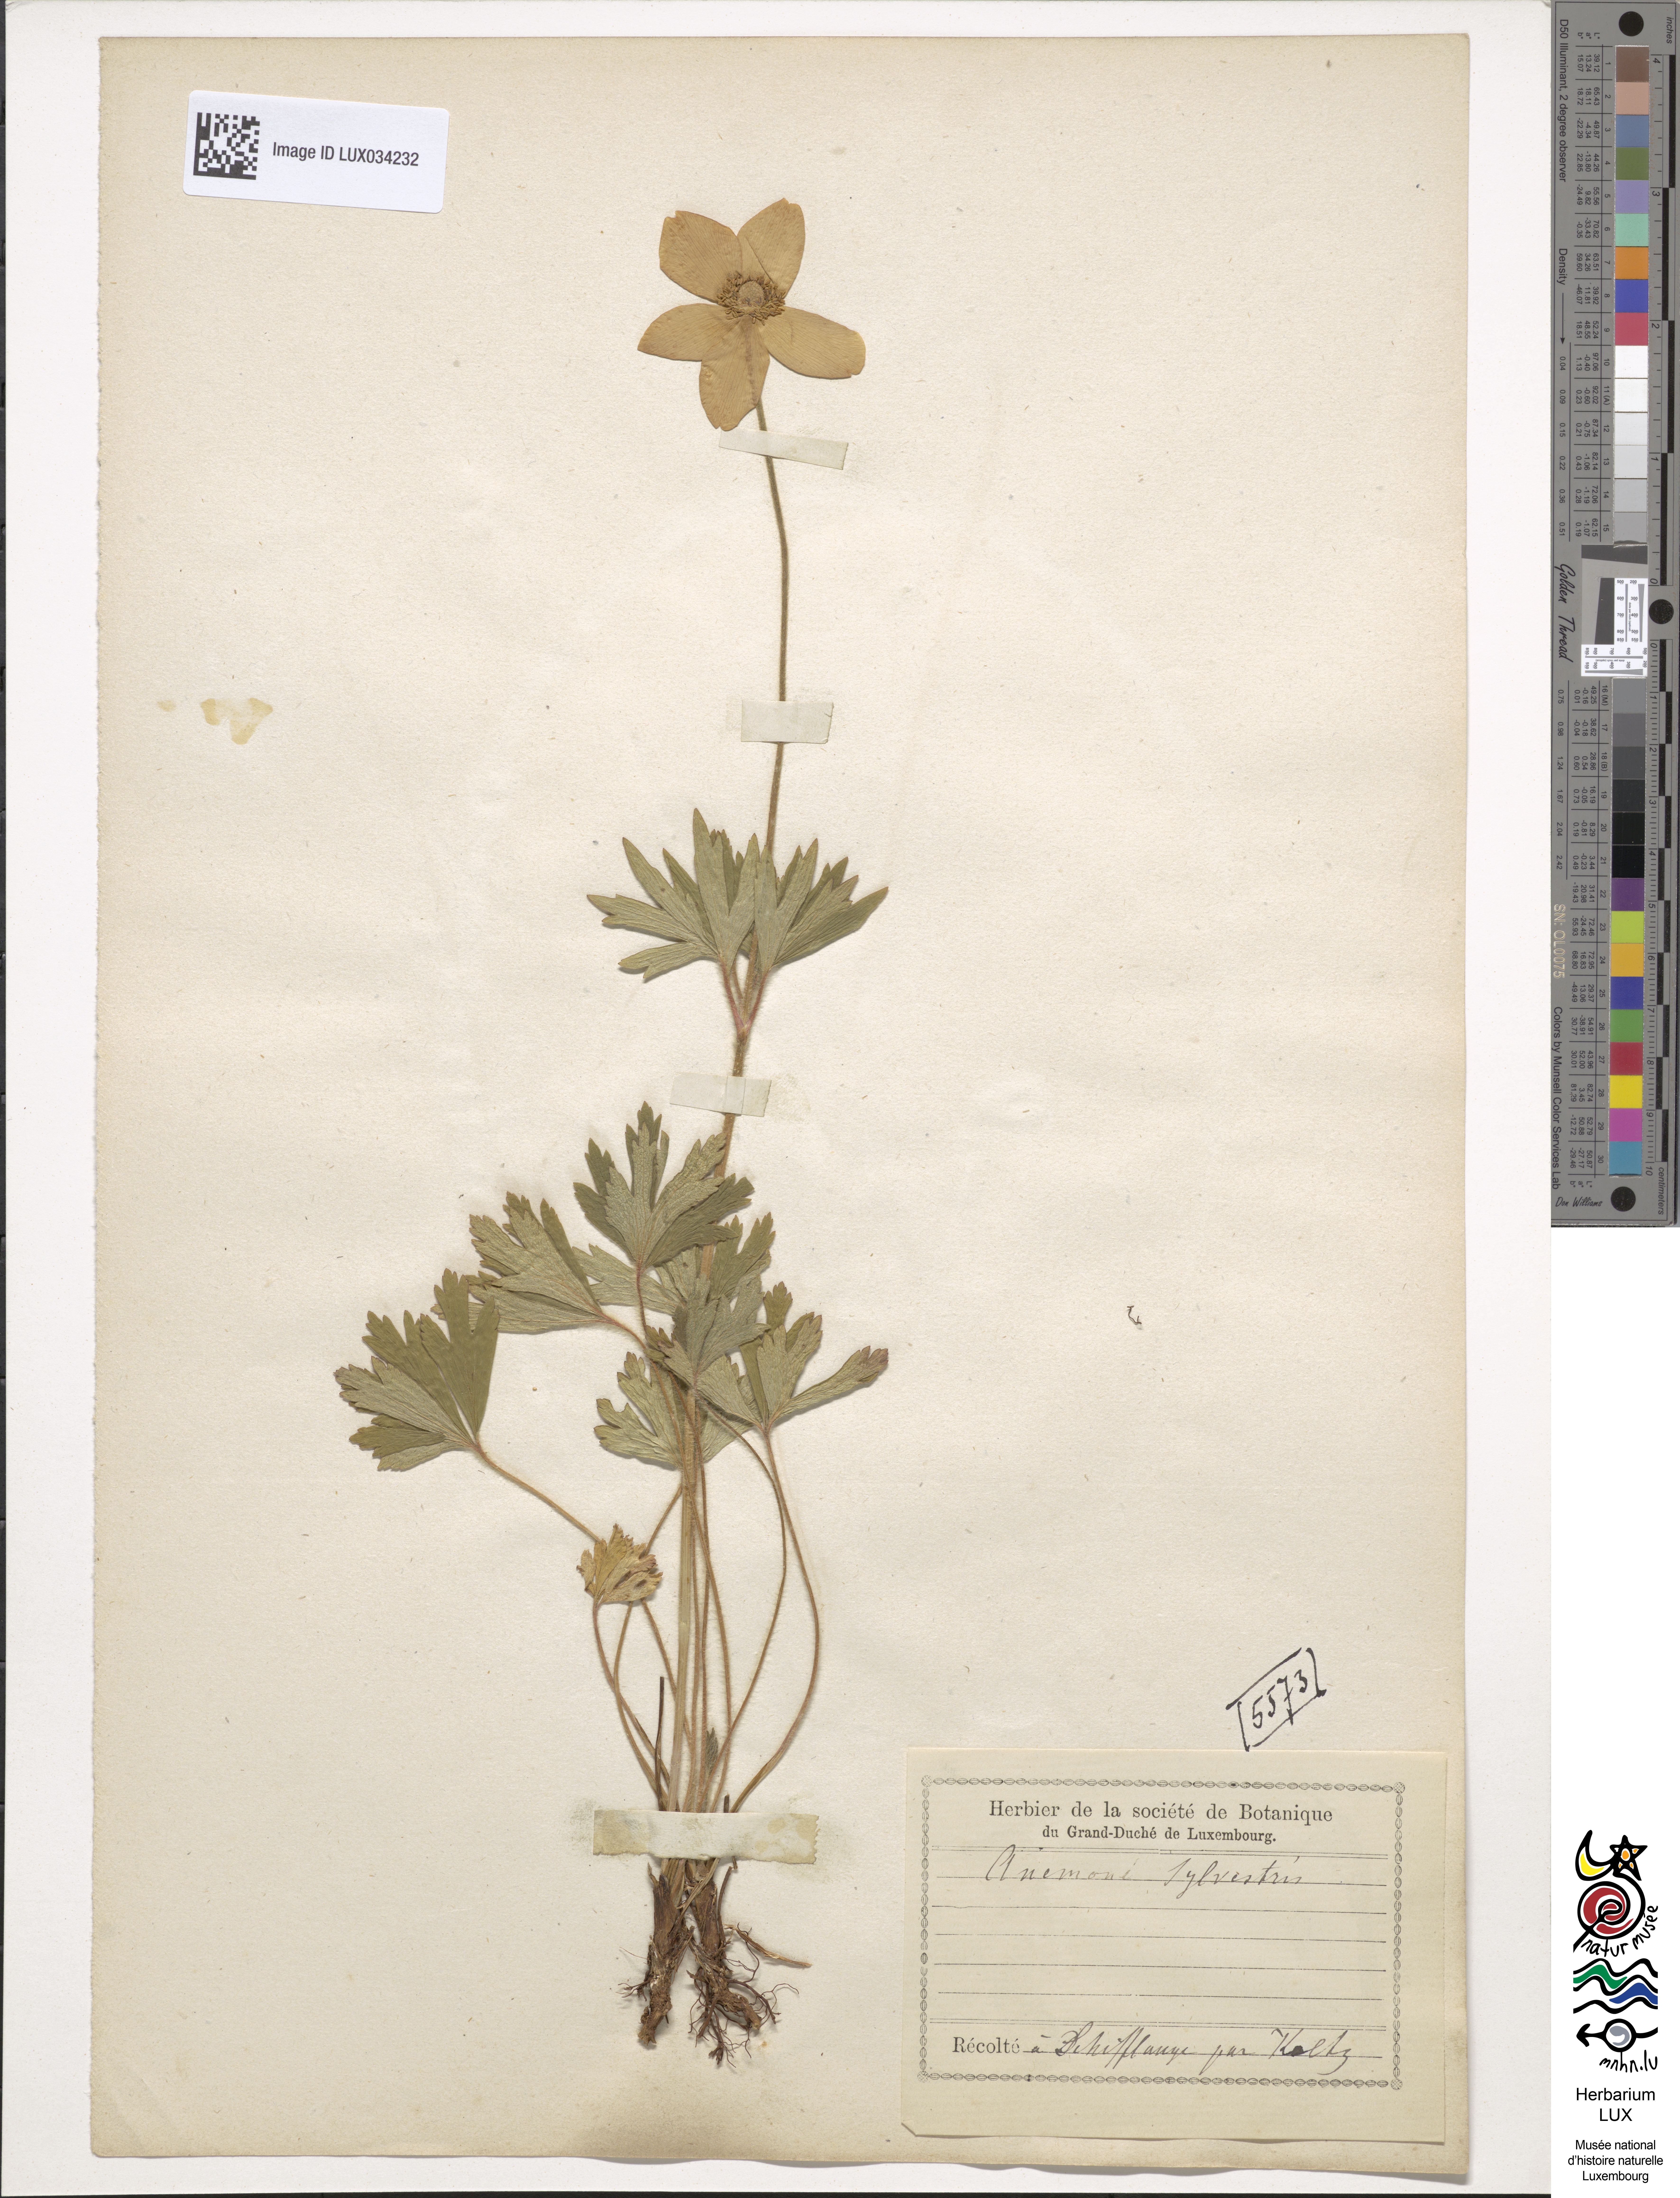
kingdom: Plantae
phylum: Tracheophyta
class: Magnoliopsida
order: Ranunculales
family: Ranunculaceae
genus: Anemone
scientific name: Anemone sylvestris
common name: Snowdrop anemone
